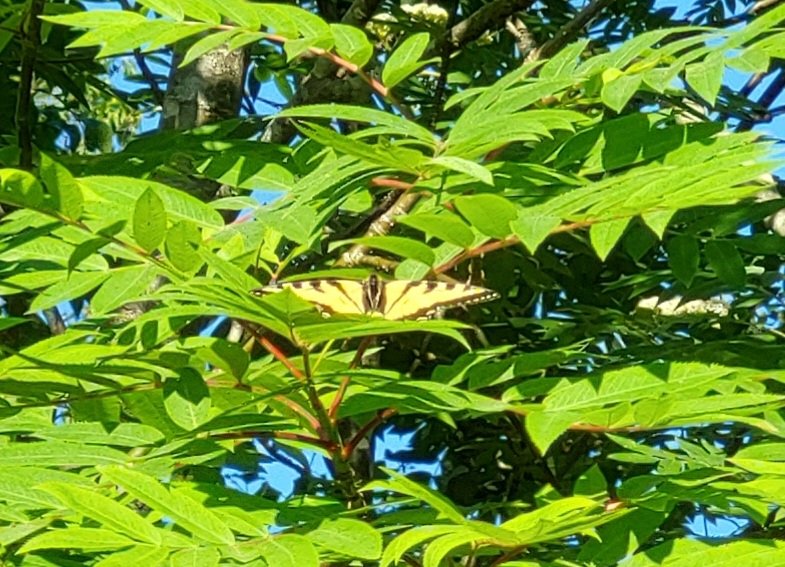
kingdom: Animalia
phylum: Arthropoda
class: Insecta
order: Lepidoptera
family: Papilionidae
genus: Pterourus
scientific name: Pterourus canadensis
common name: Canadian Tiger Swallowtail
